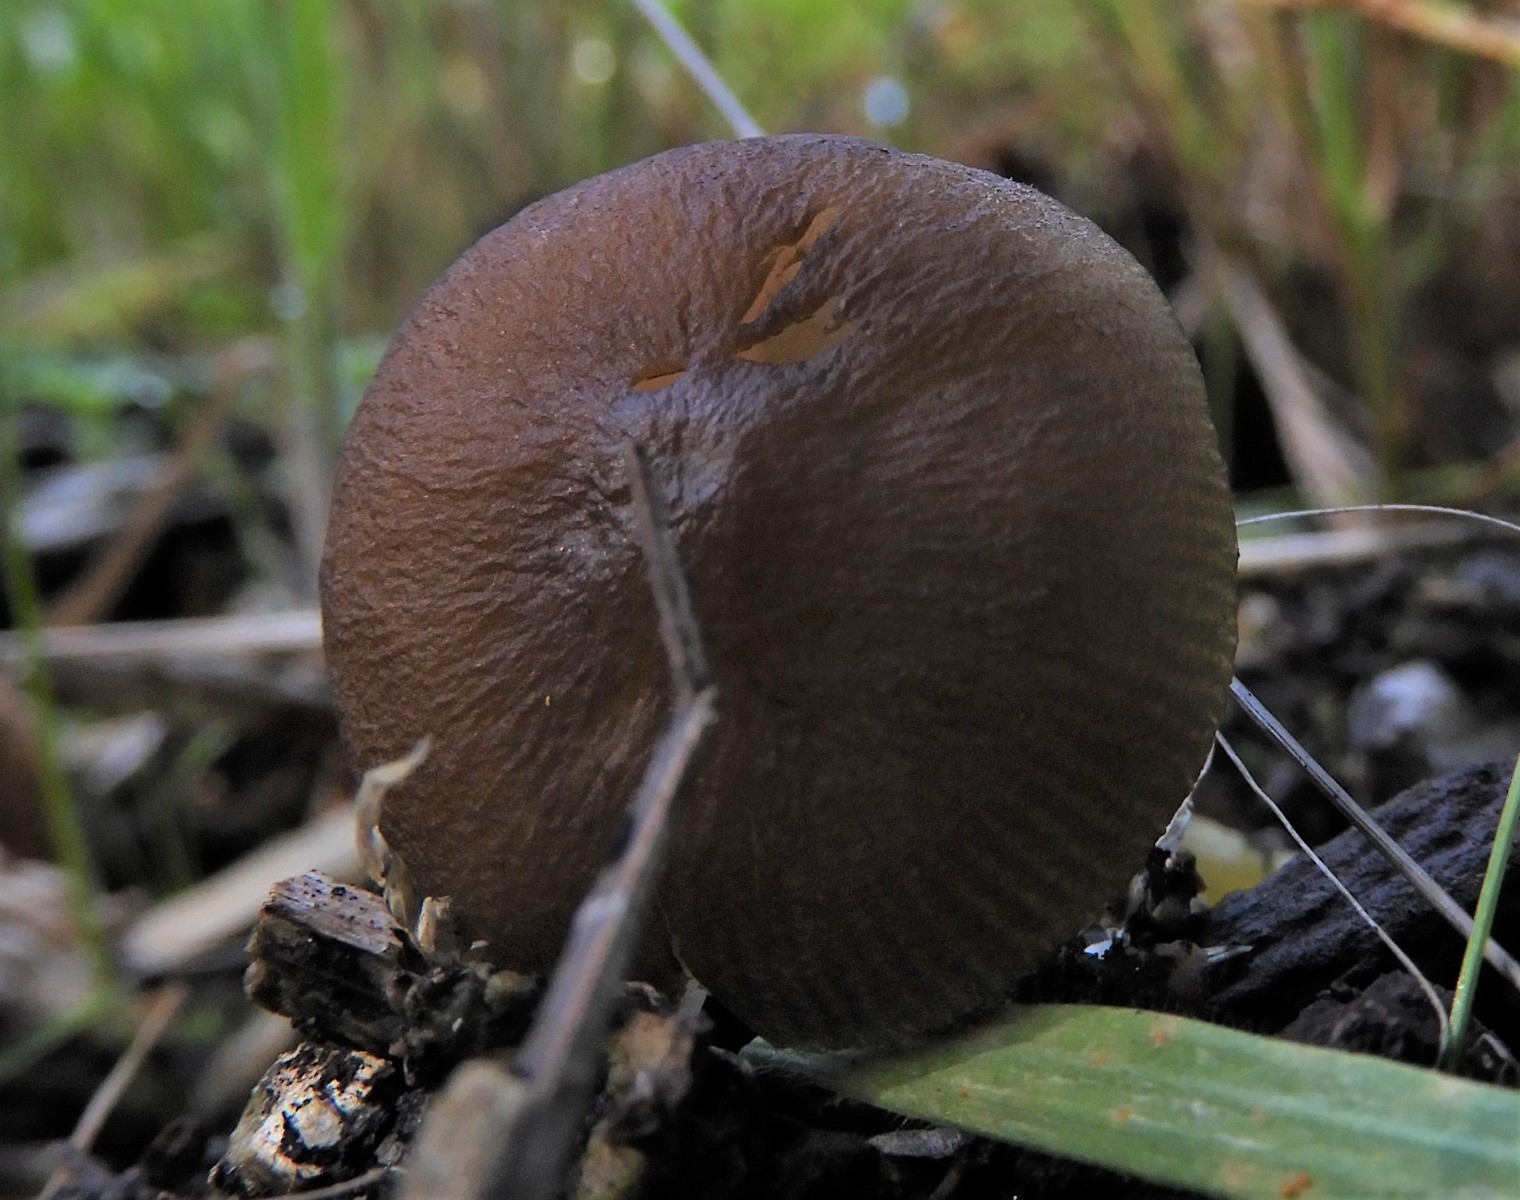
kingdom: Fungi
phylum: Basidiomycota
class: Agaricomycetes
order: Agaricales
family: Pluteaceae
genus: Pluteus
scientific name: Pluteus romellii
